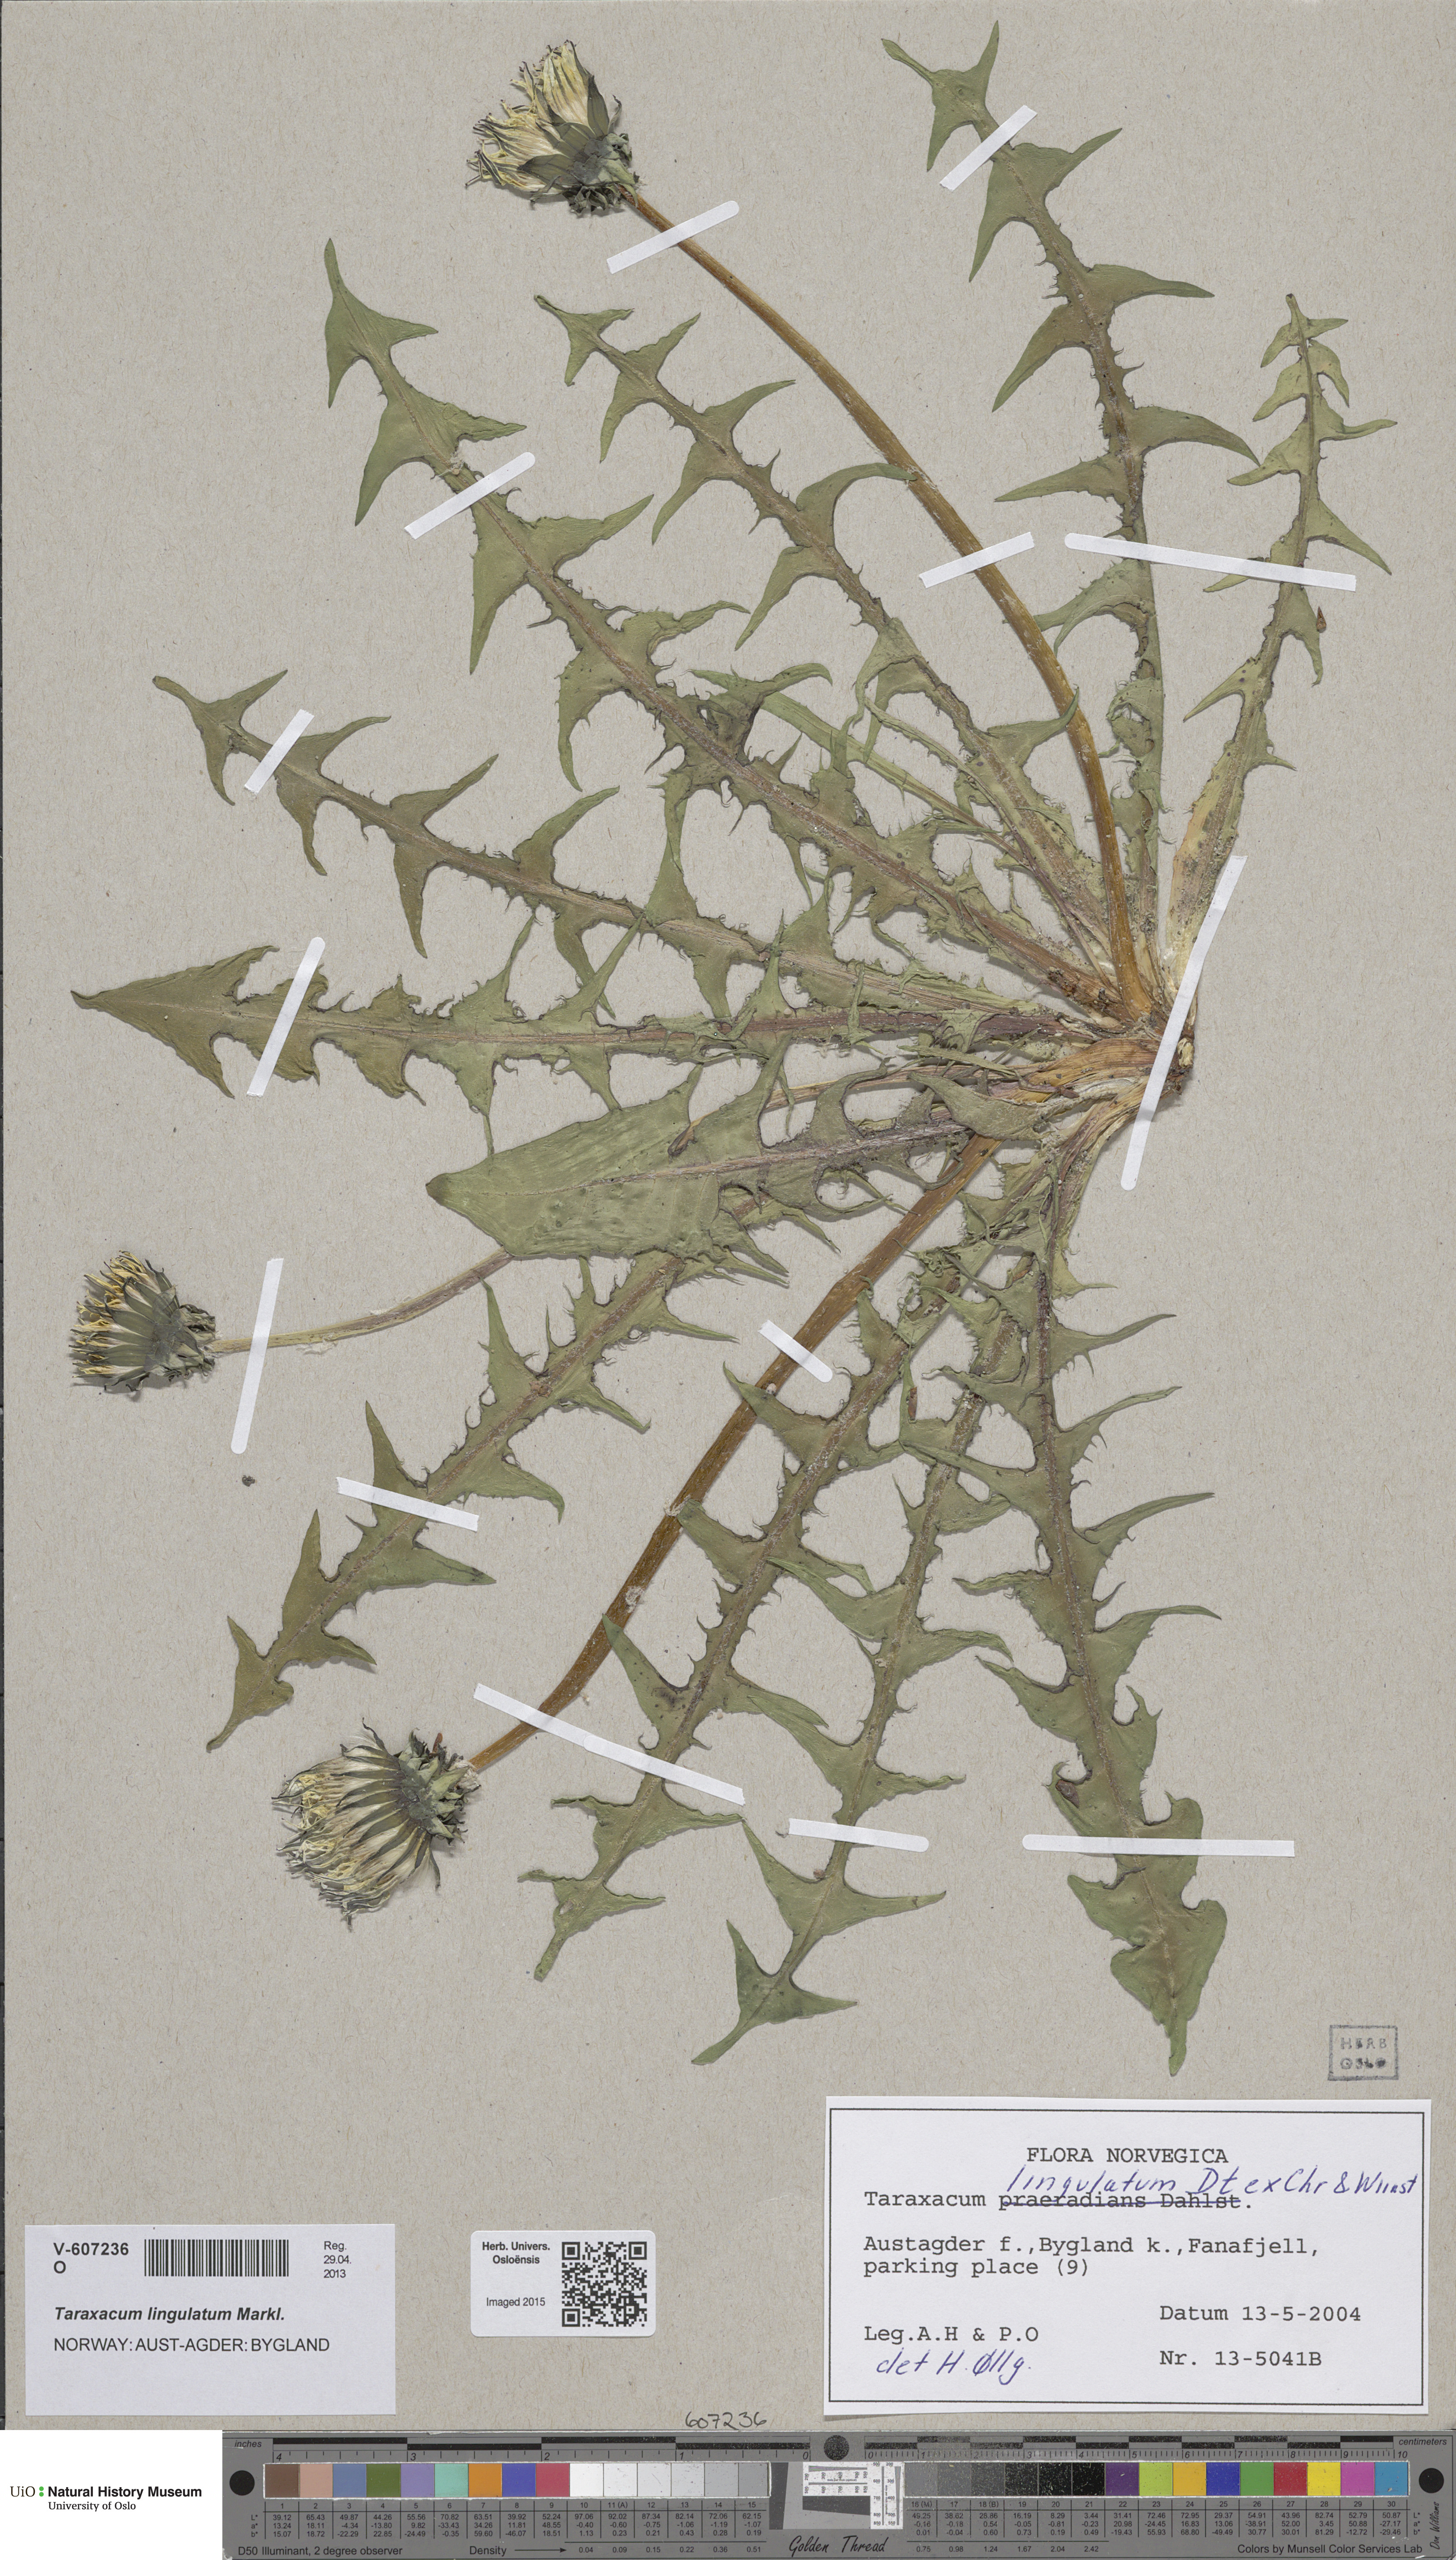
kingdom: Plantae
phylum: Tracheophyta
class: Magnoliopsida
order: Asterales
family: Asteraceae
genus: Taraxacum
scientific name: Taraxacum lingulatum
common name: Long-bracted dandelion
